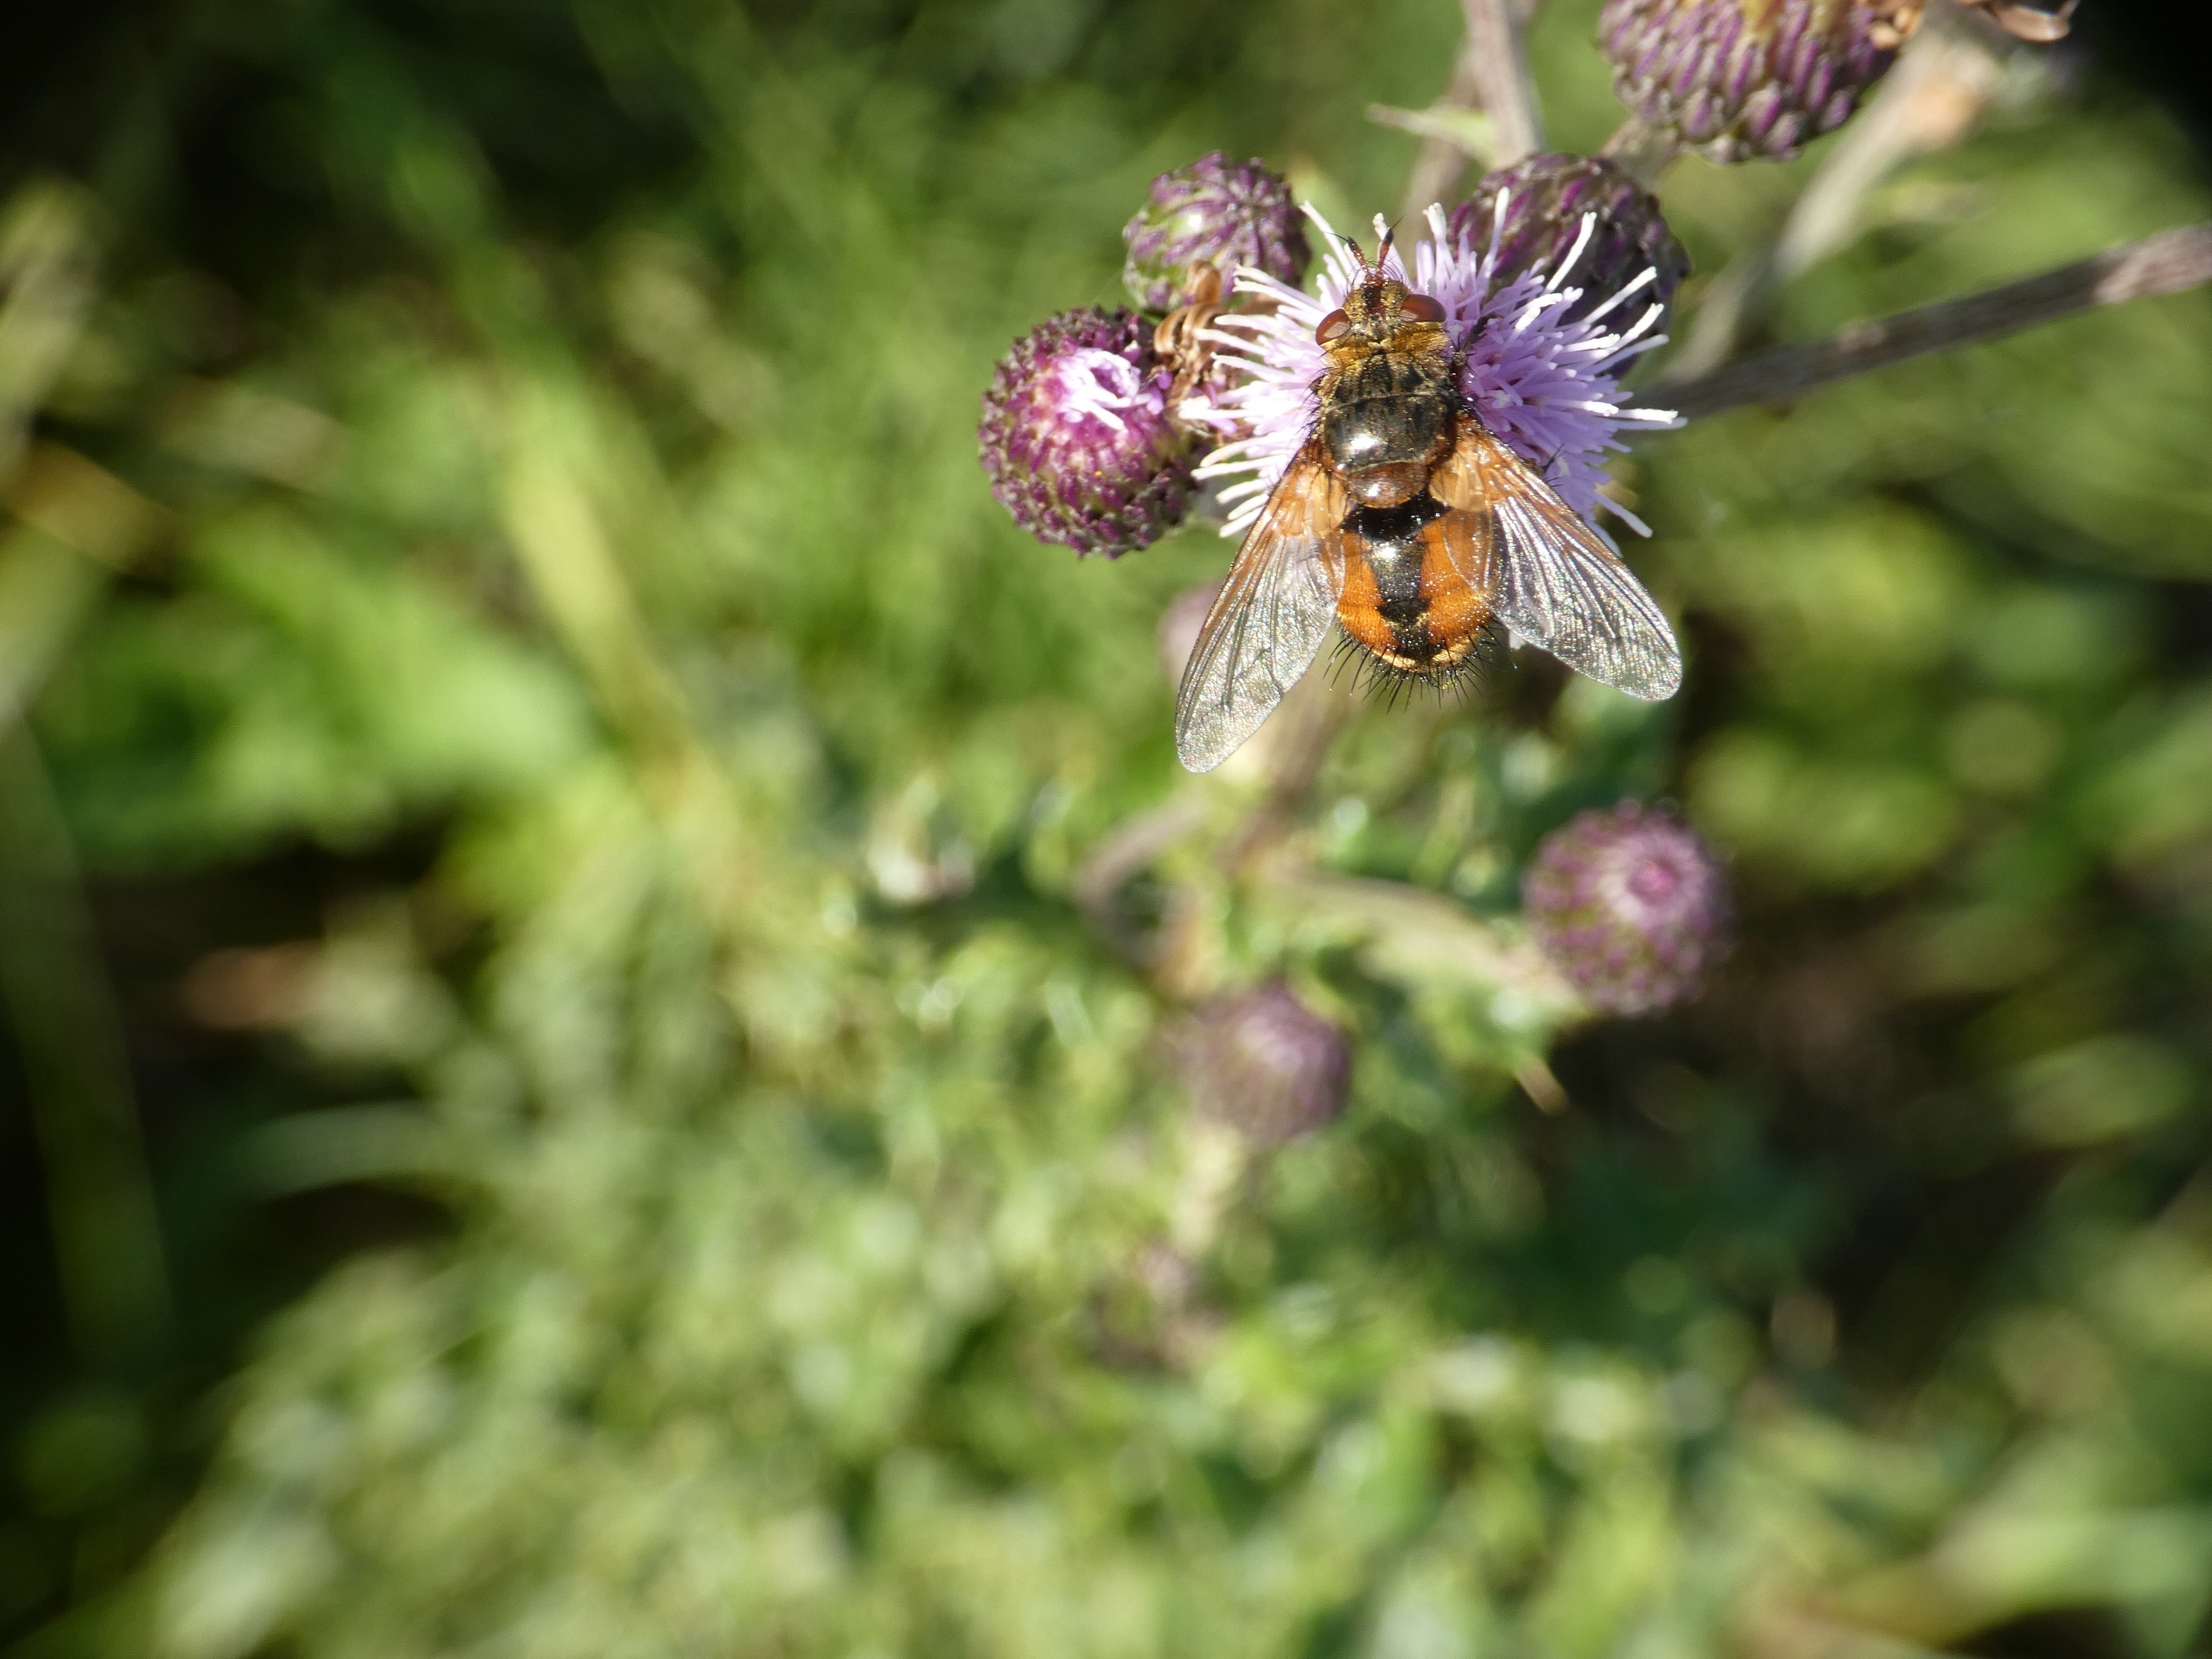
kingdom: Animalia
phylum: Arthropoda
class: Insecta
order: Diptera
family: Tachinidae
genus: Tachina
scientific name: Tachina fera
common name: Mellemfluen oskar
